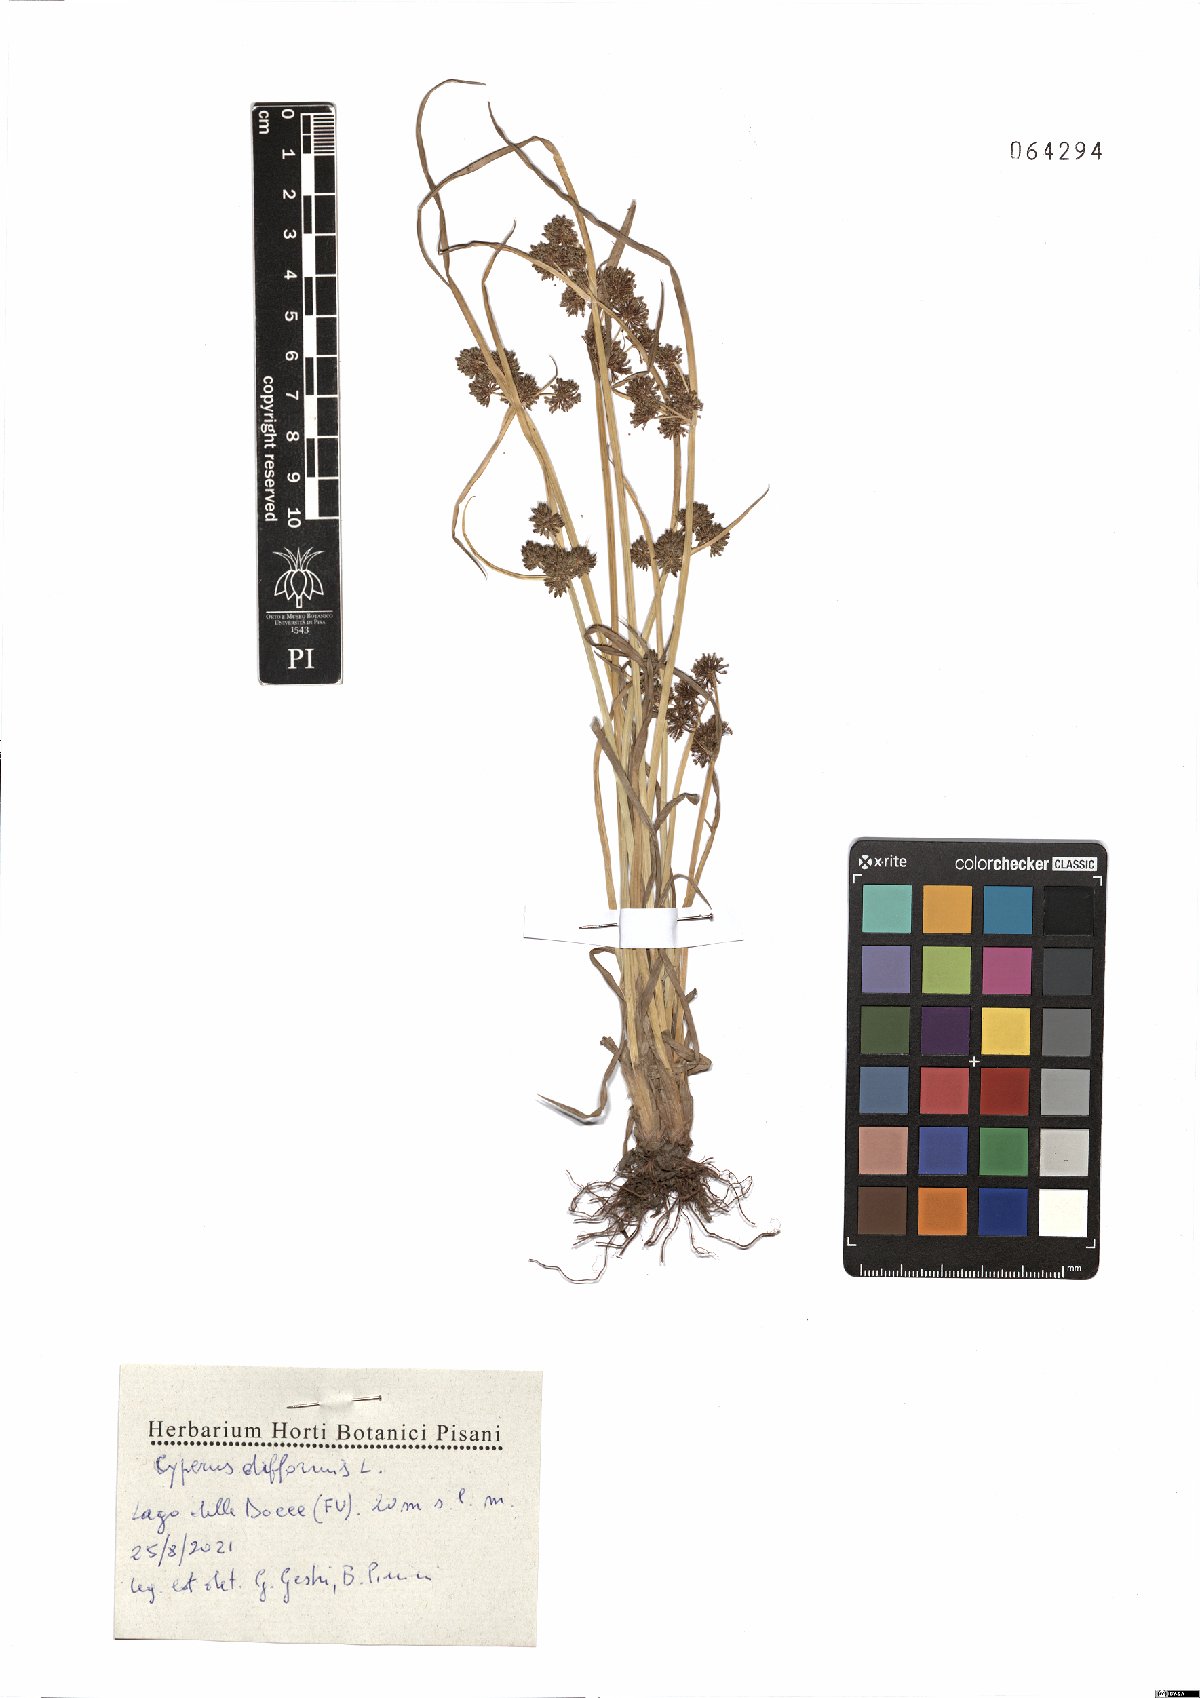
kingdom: Plantae
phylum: Tracheophyta
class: Liliopsida
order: Poales
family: Cyperaceae
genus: Cyperus
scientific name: Cyperus difformis
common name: Variable flatsedge
